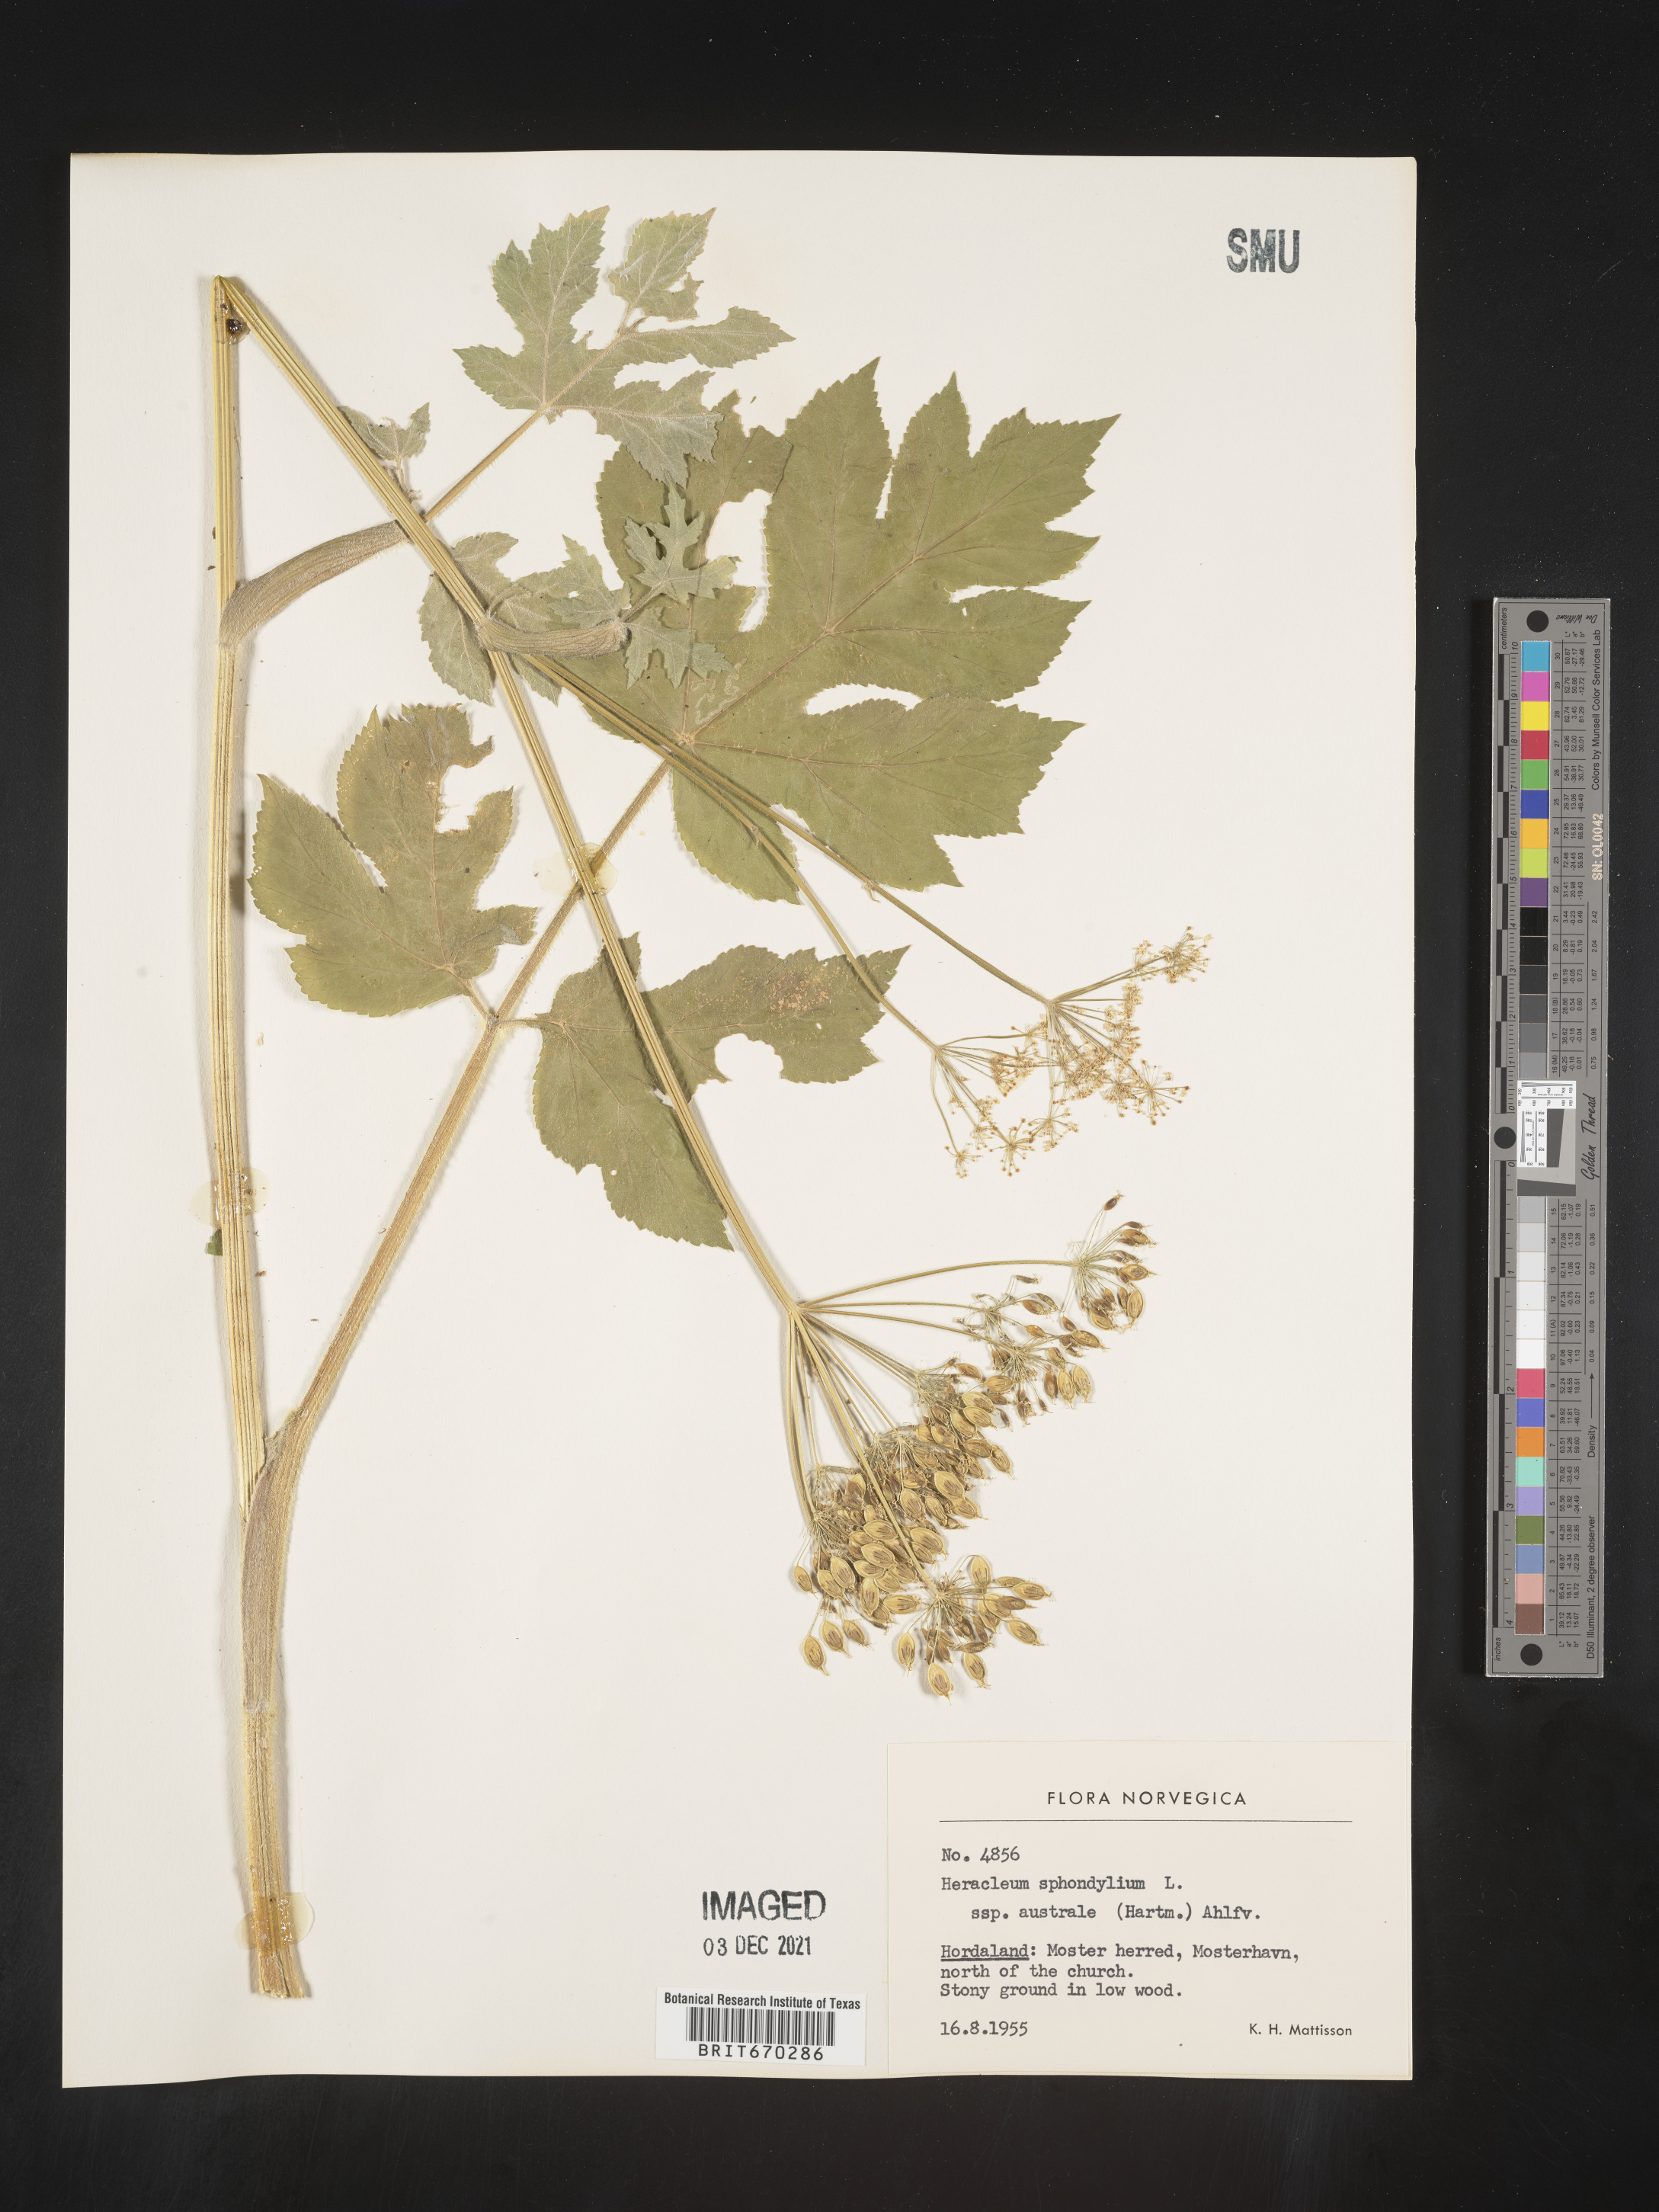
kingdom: Plantae
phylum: Tracheophyta
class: Magnoliopsida
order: Apiales
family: Apiaceae
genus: Heracleum
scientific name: Heracleum
